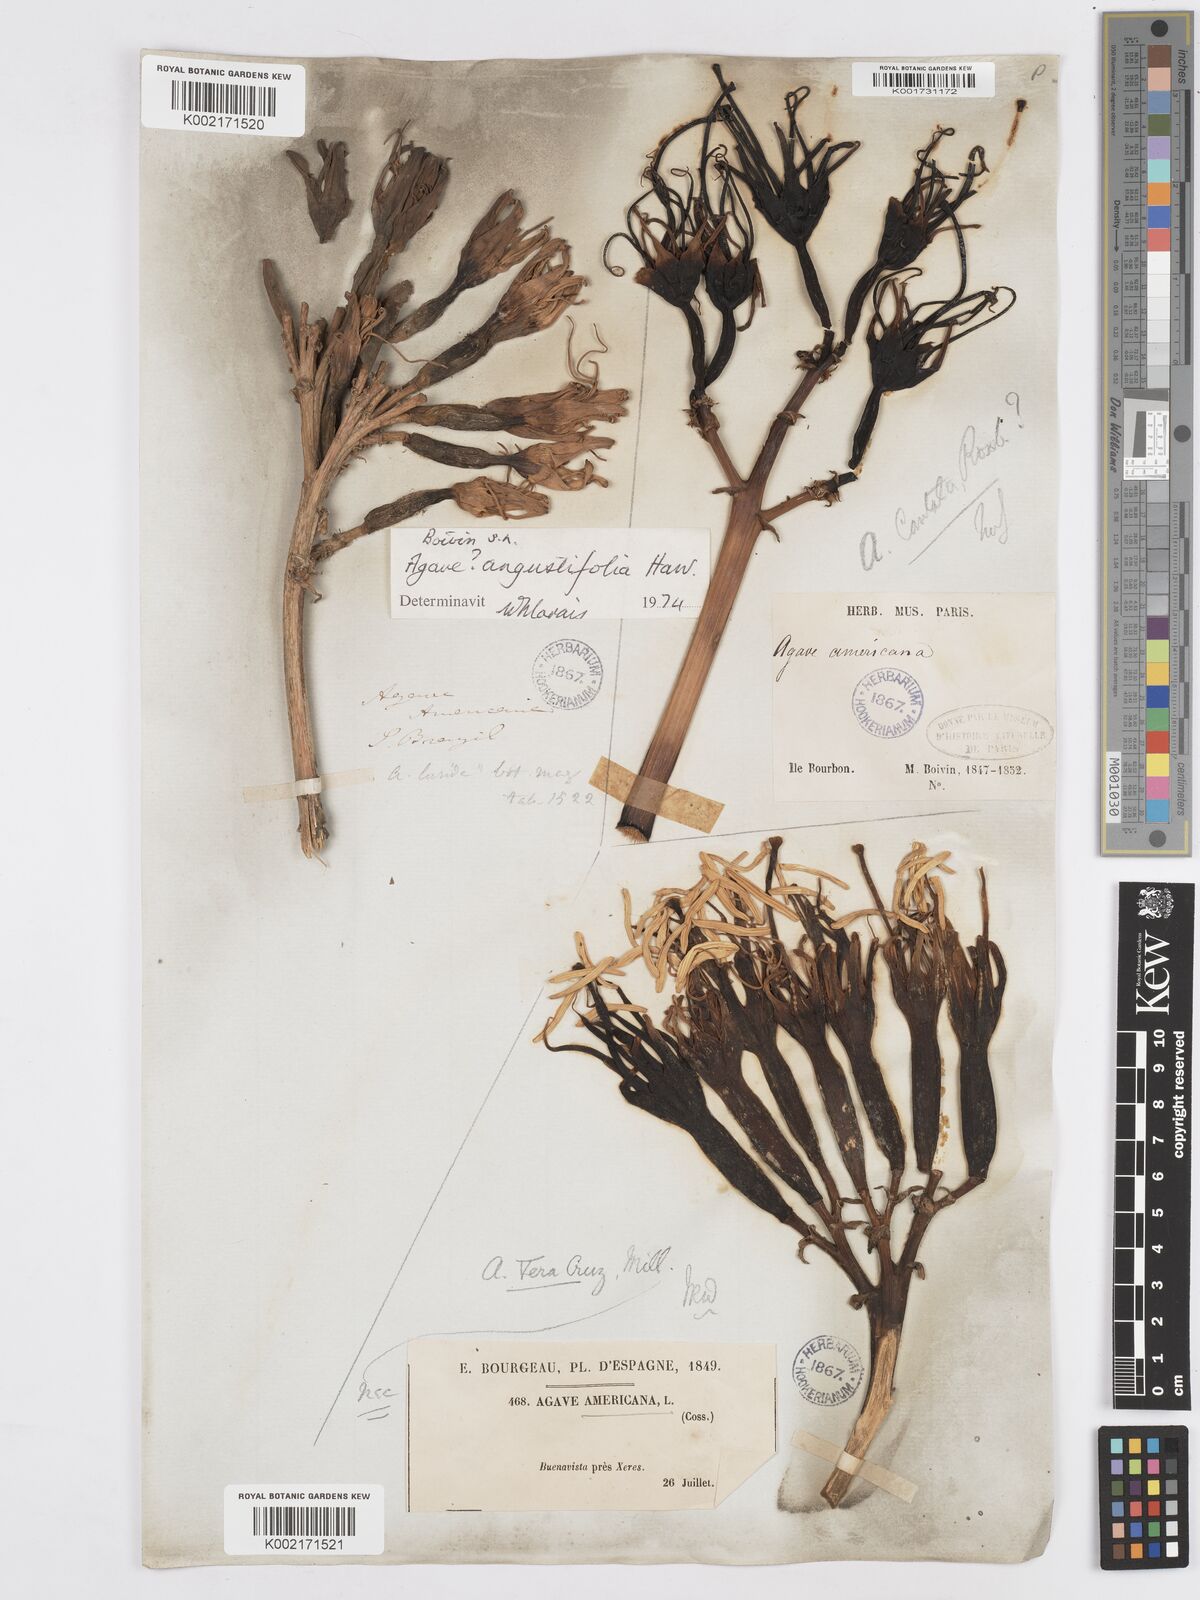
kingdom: Plantae
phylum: Tracheophyta
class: Liliopsida
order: Asparagales
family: Asparagaceae
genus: Agave
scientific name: Agave angustifolia
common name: Mescal agave
